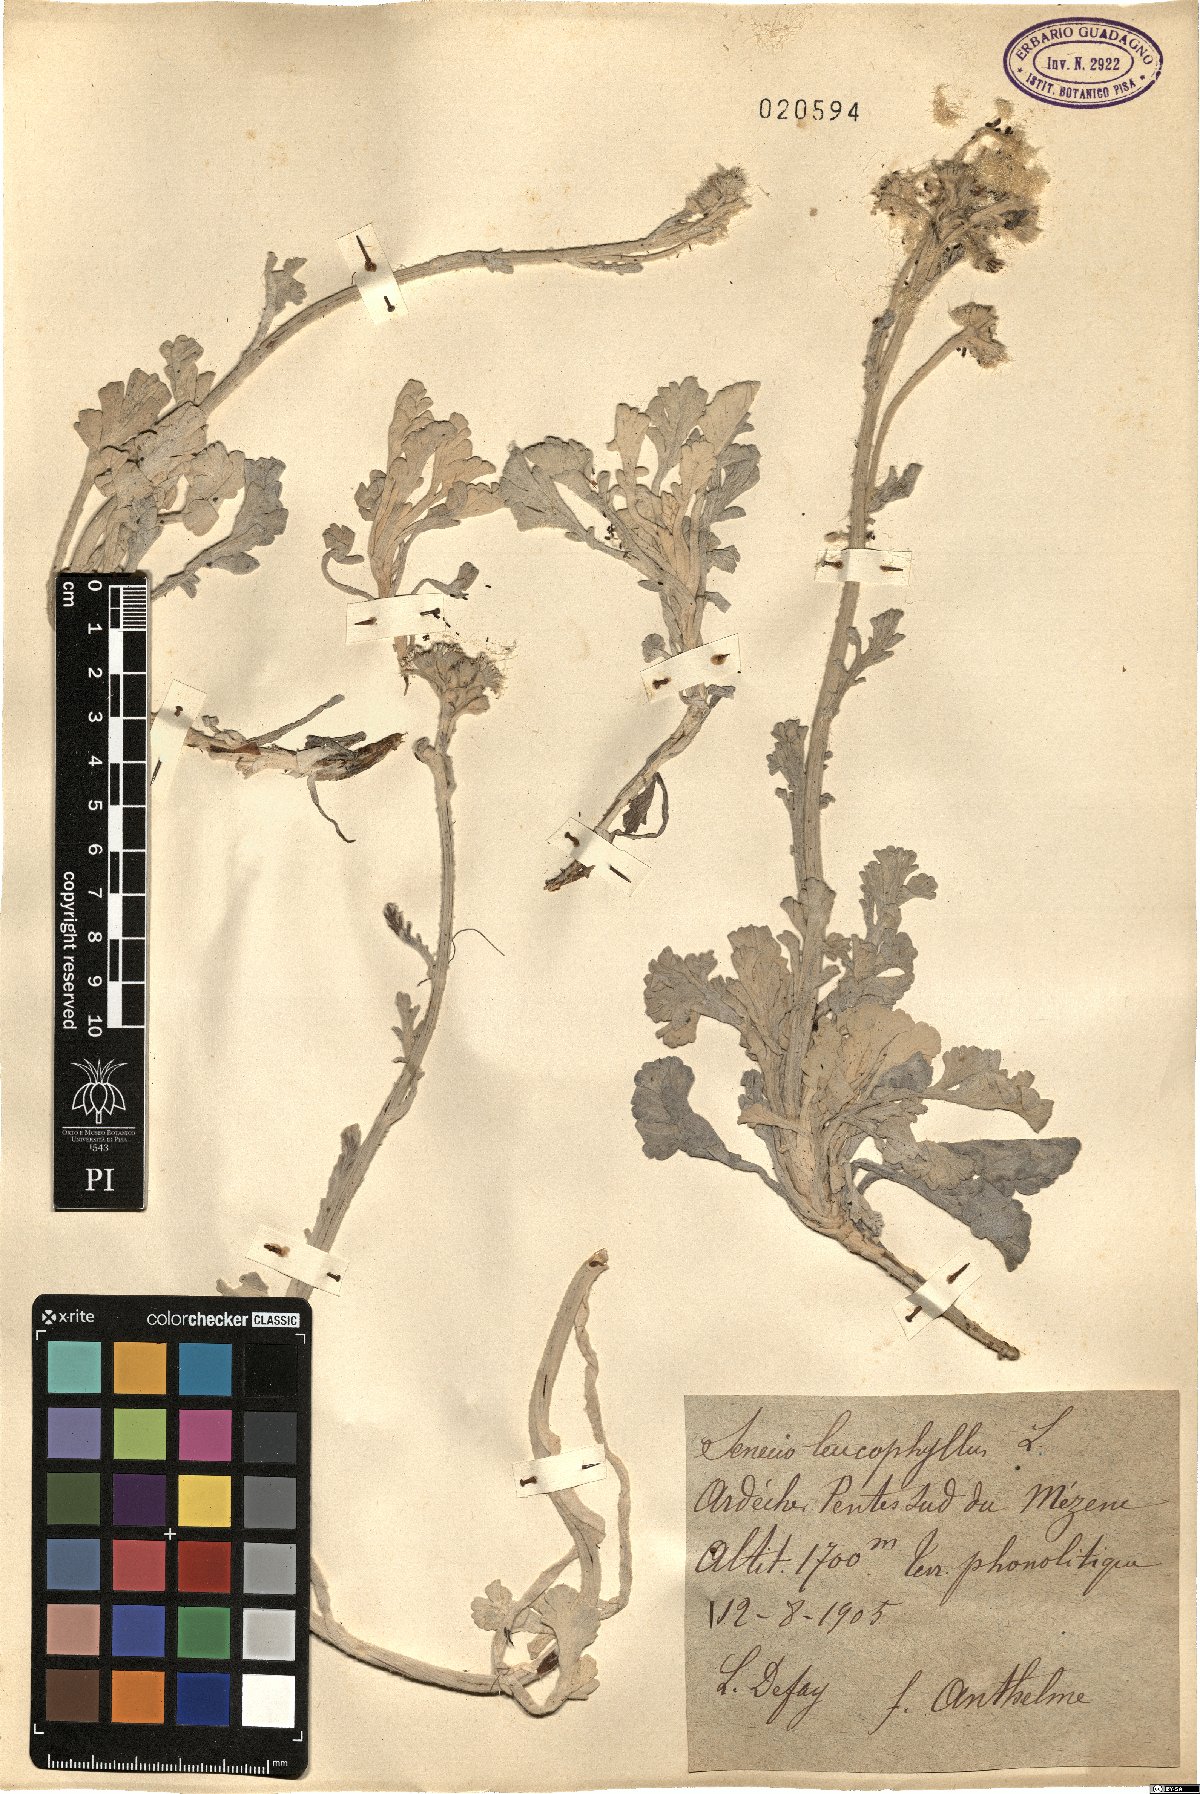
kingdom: Plantae
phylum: Tracheophyta
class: Magnoliopsida
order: Asterales
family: Asteraceae
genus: Jacobaea
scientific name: Jacobaea leucophylla
